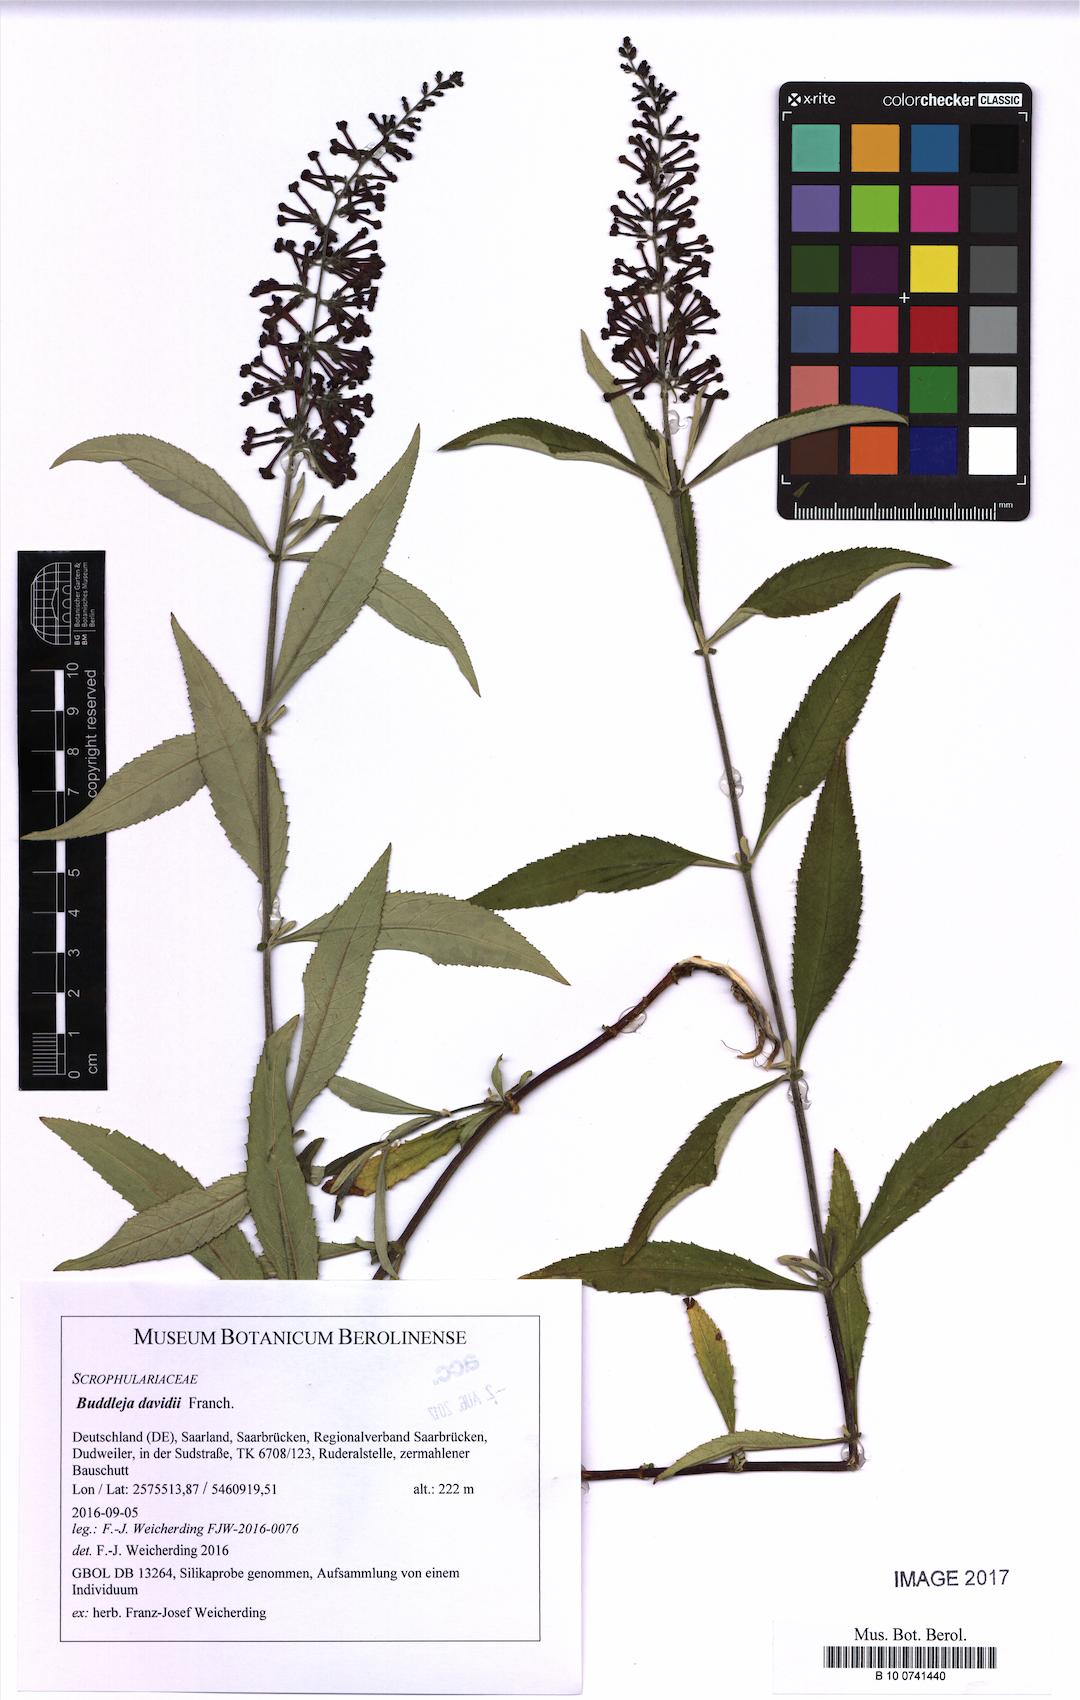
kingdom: Plantae
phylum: Tracheophyta
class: Magnoliopsida
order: Lamiales
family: Scrophulariaceae
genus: Buddleja
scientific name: Buddleja davidii
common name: Butterfly-bush
